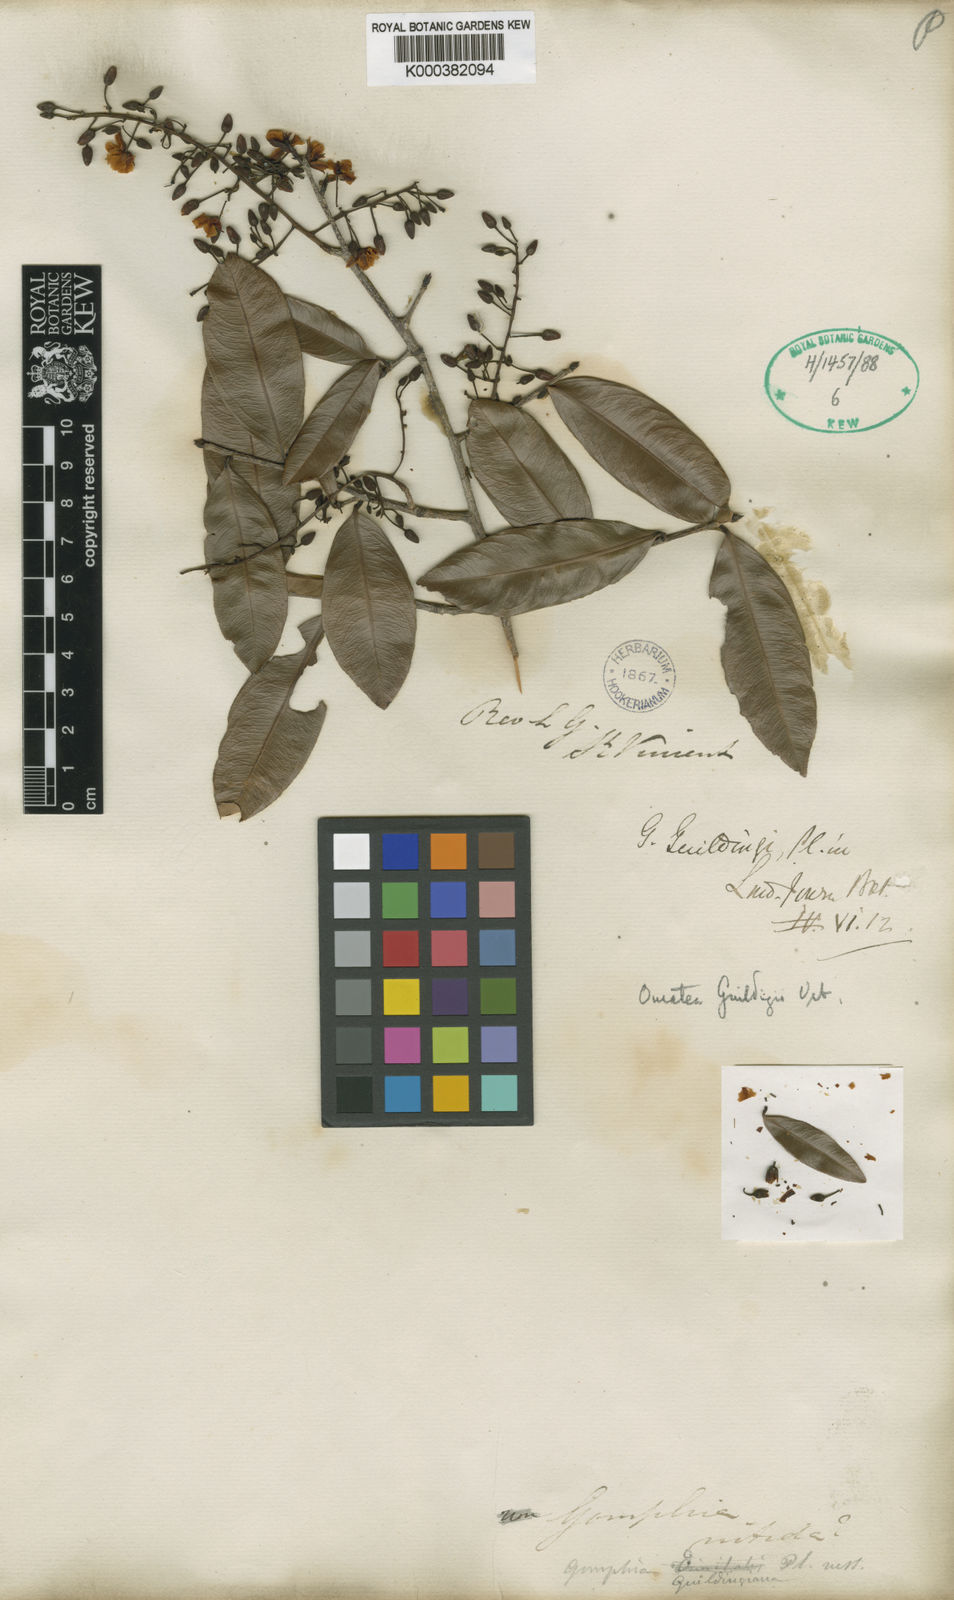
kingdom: Plantae
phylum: Tracheophyta
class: Magnoliopsida
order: Malpighiales
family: Ochnaceae
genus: Ouratea
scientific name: Ouratea guildingii
